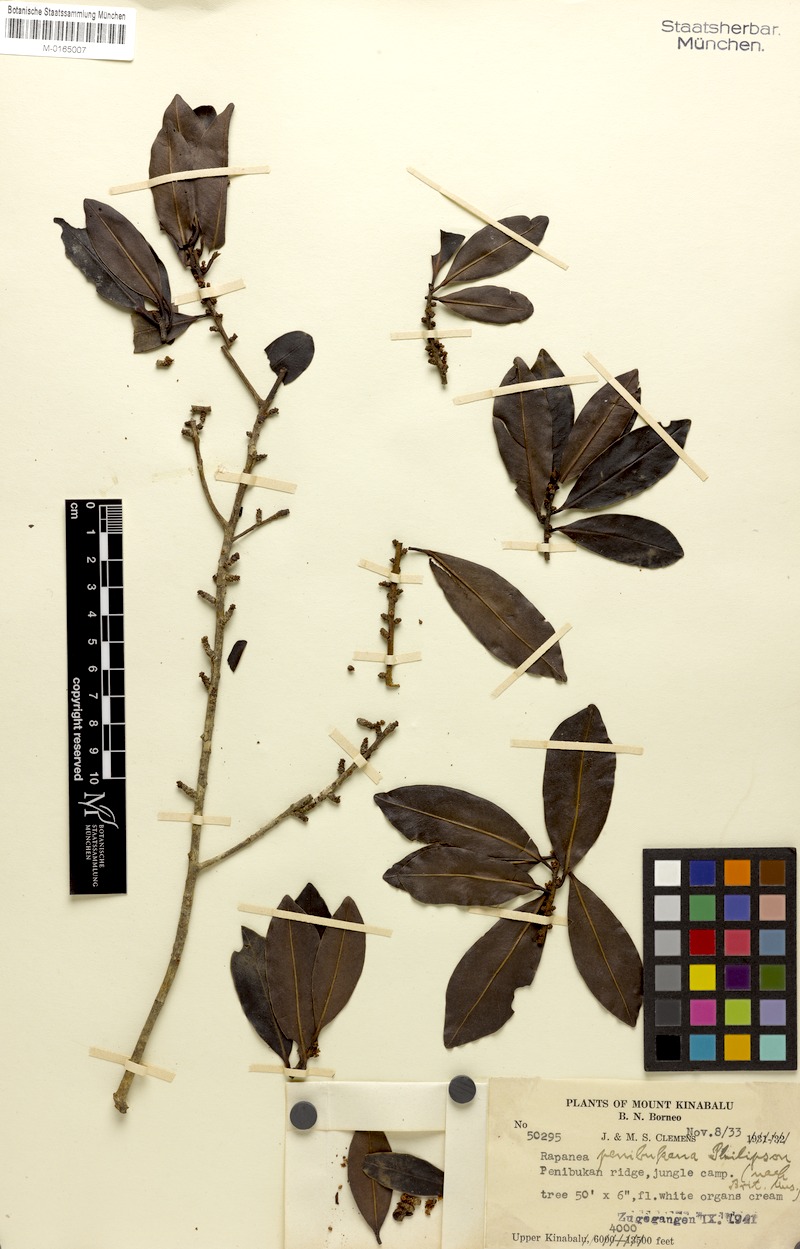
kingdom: Plantae
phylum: Tracheophyta
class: Magnoliopsida
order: Ericales
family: Primulaceae
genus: Myrsine
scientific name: Myrsine penibukana
